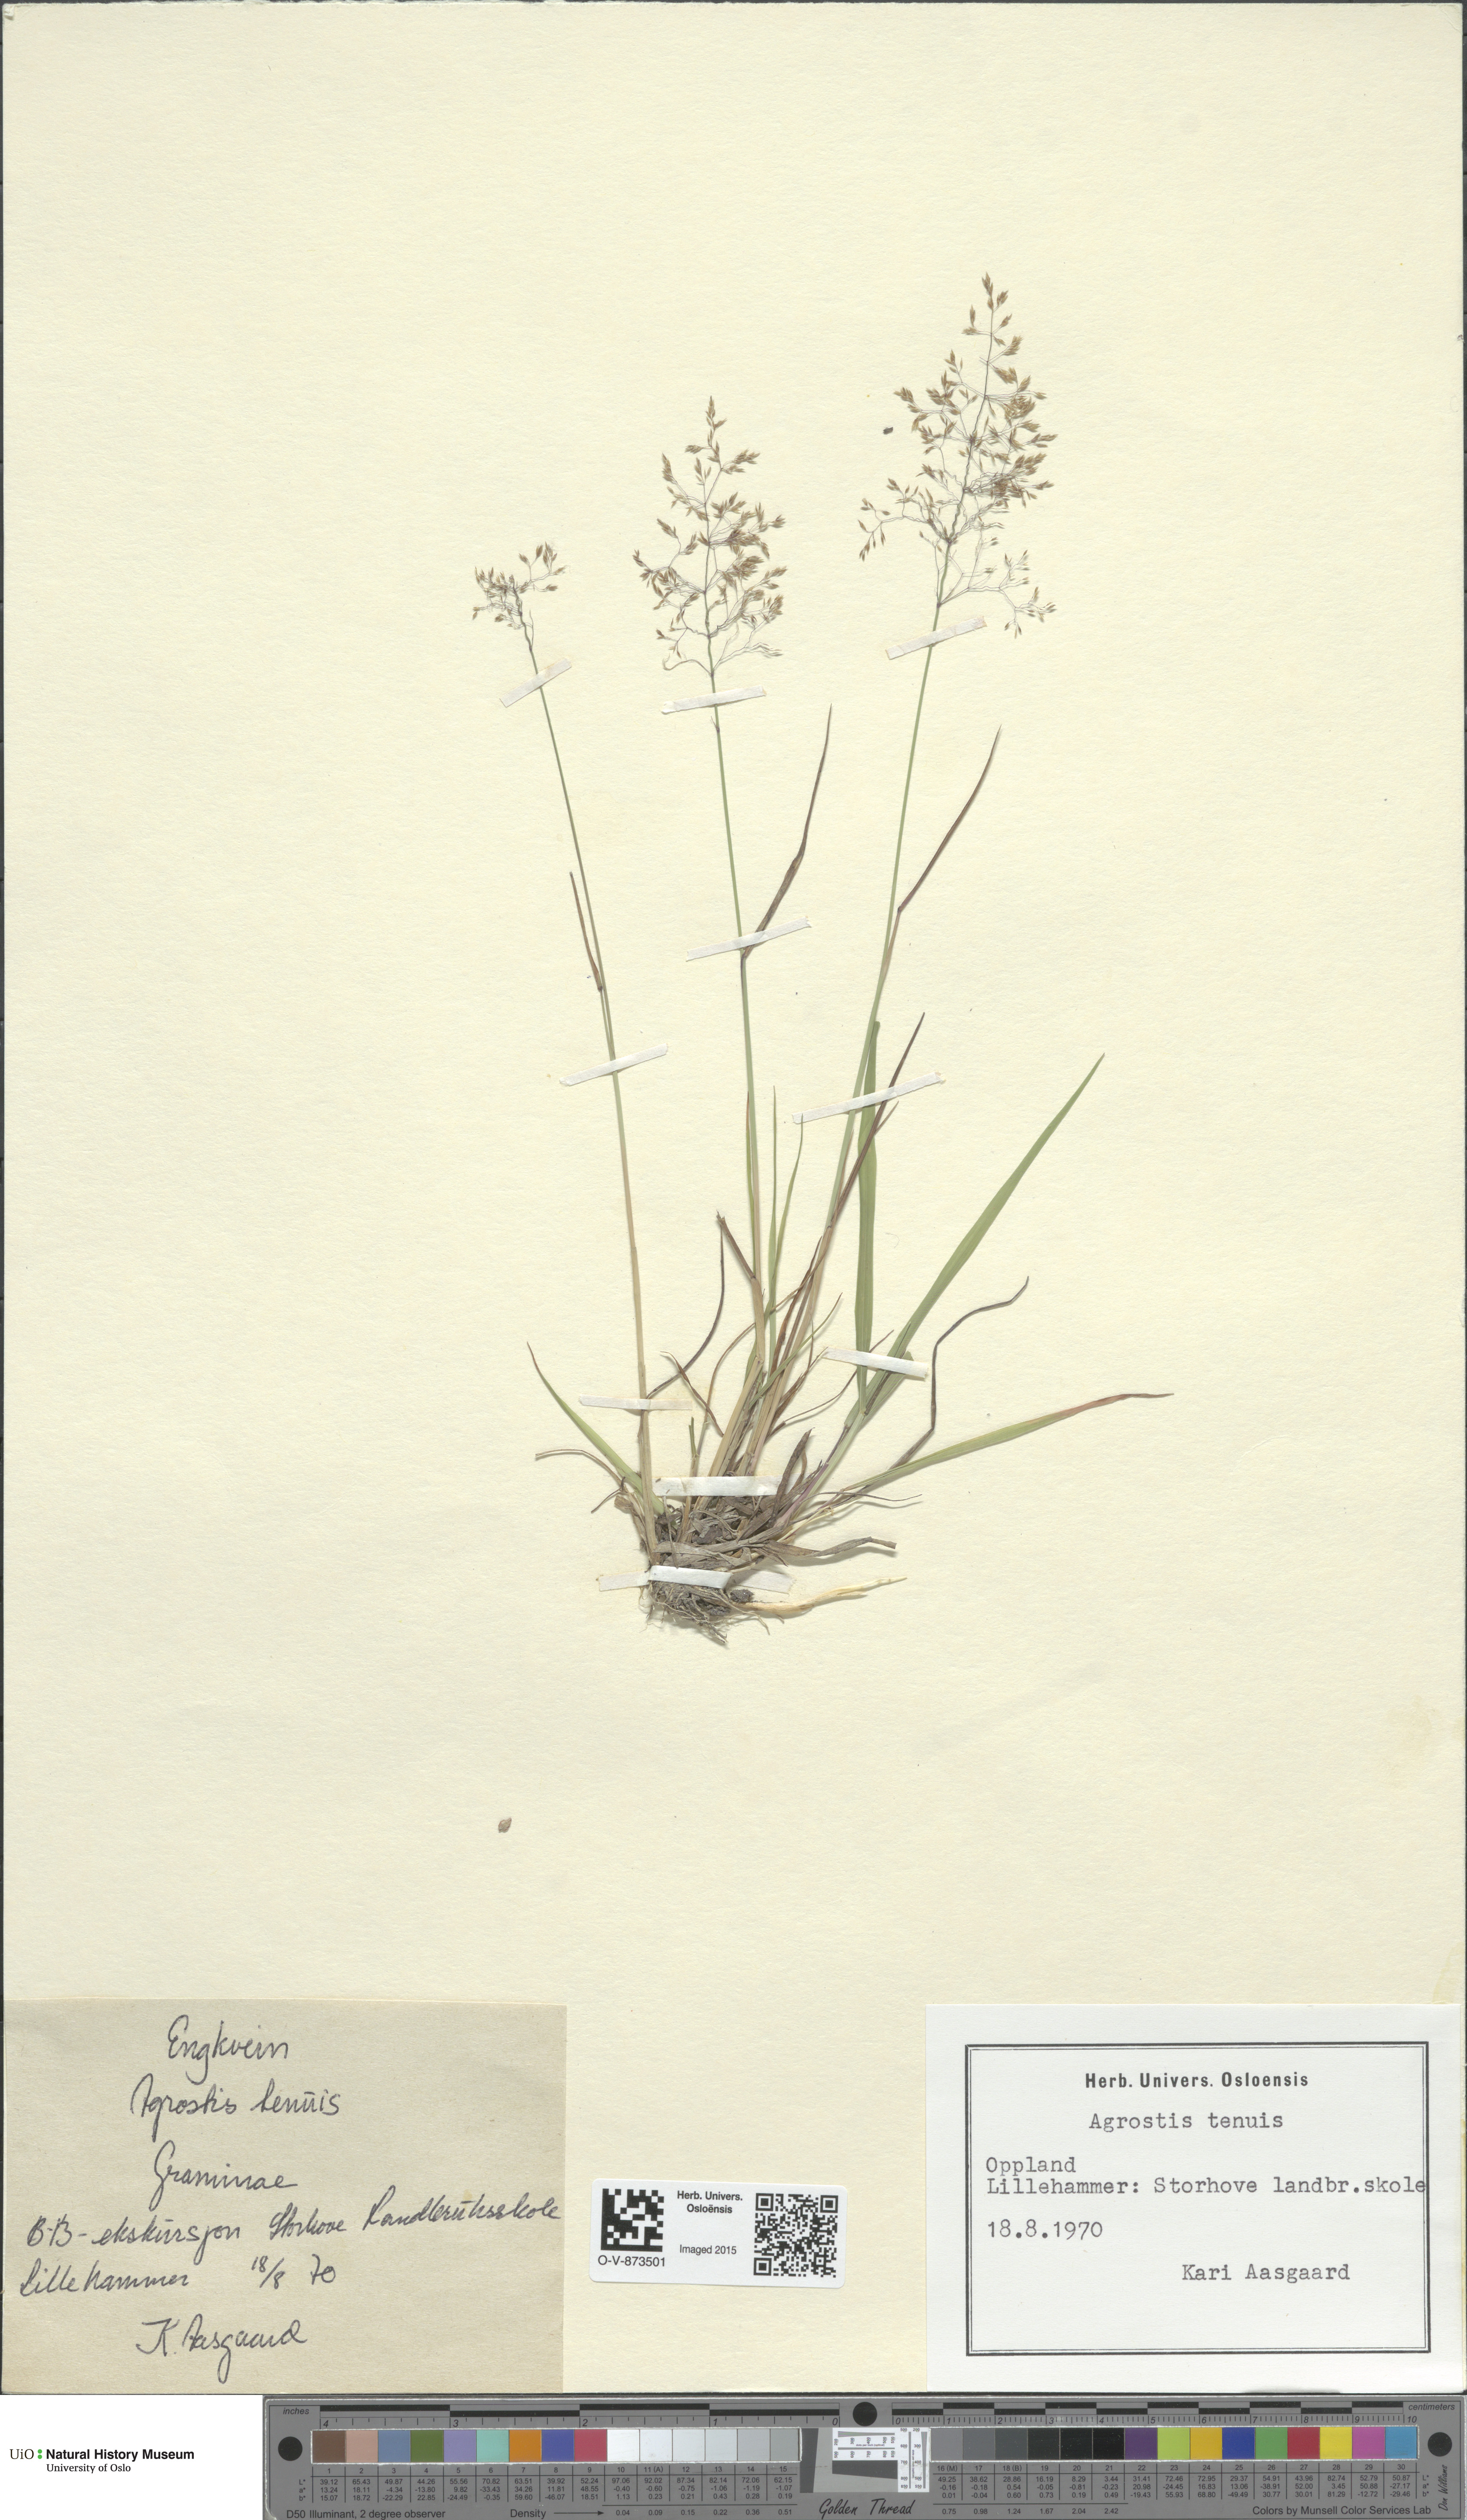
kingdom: Plantae
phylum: Tracheophyta
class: Liliopsida
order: Poales
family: Poaceae
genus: Agrostis
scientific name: Agrostis capillaris
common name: Colonial bentgrass
